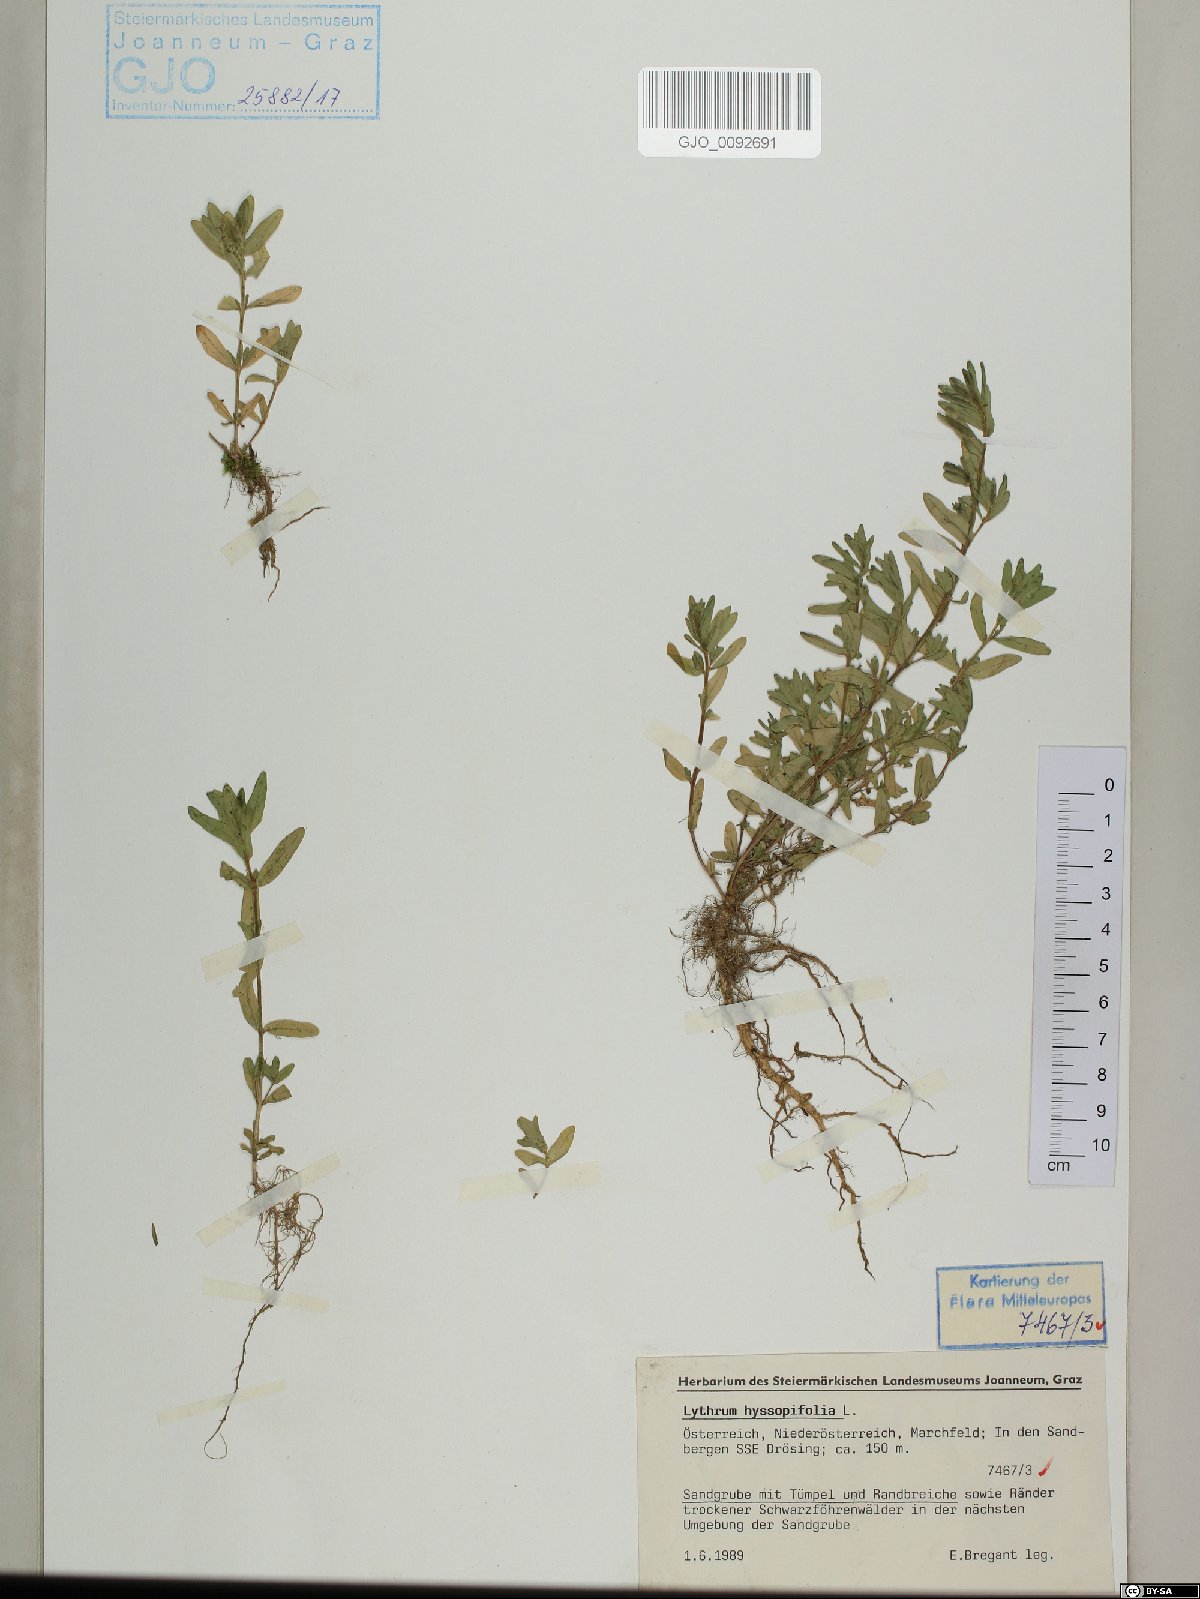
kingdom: Plantae
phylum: Tracheophyta
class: Magnoliopsida
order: Myrtales
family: Lythraceae
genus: Lythrum
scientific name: Lythrum hyssopifolia
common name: Grass-poly
